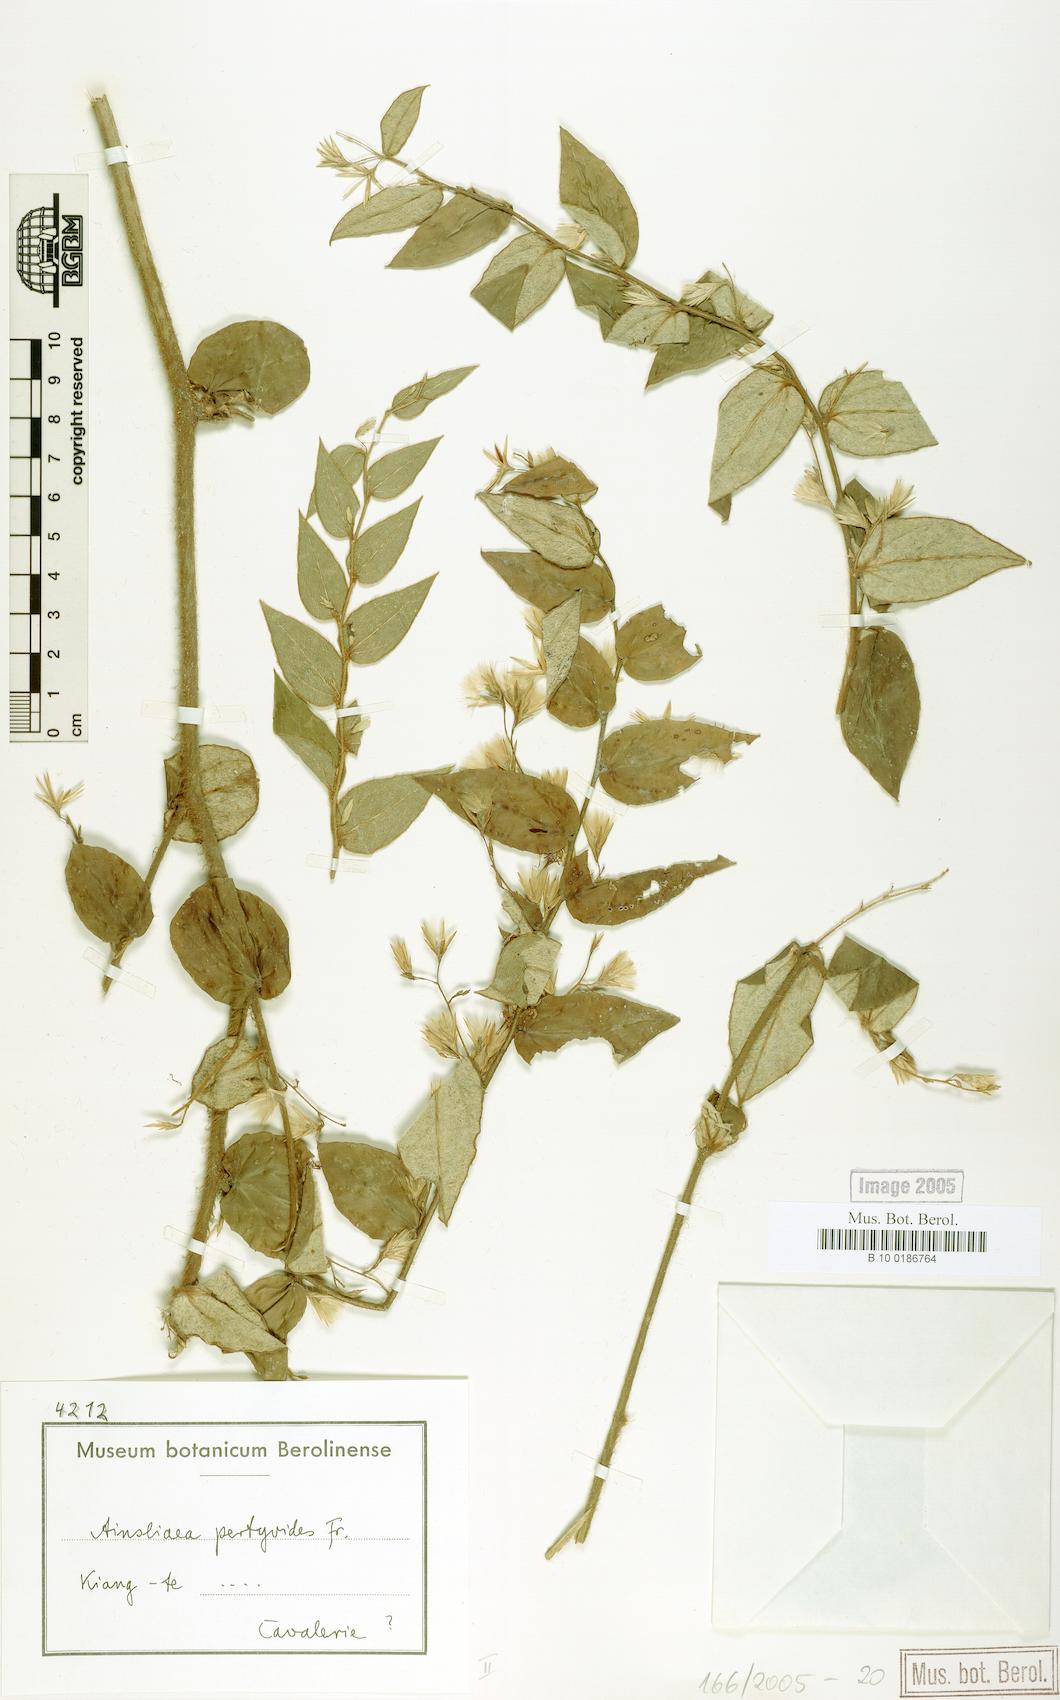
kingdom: Plantae
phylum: Tracheophyta
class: Magnoliopsida
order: Asterales
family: Asteraceae
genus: Ainsliaea
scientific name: Ainsliaea pertyoides
